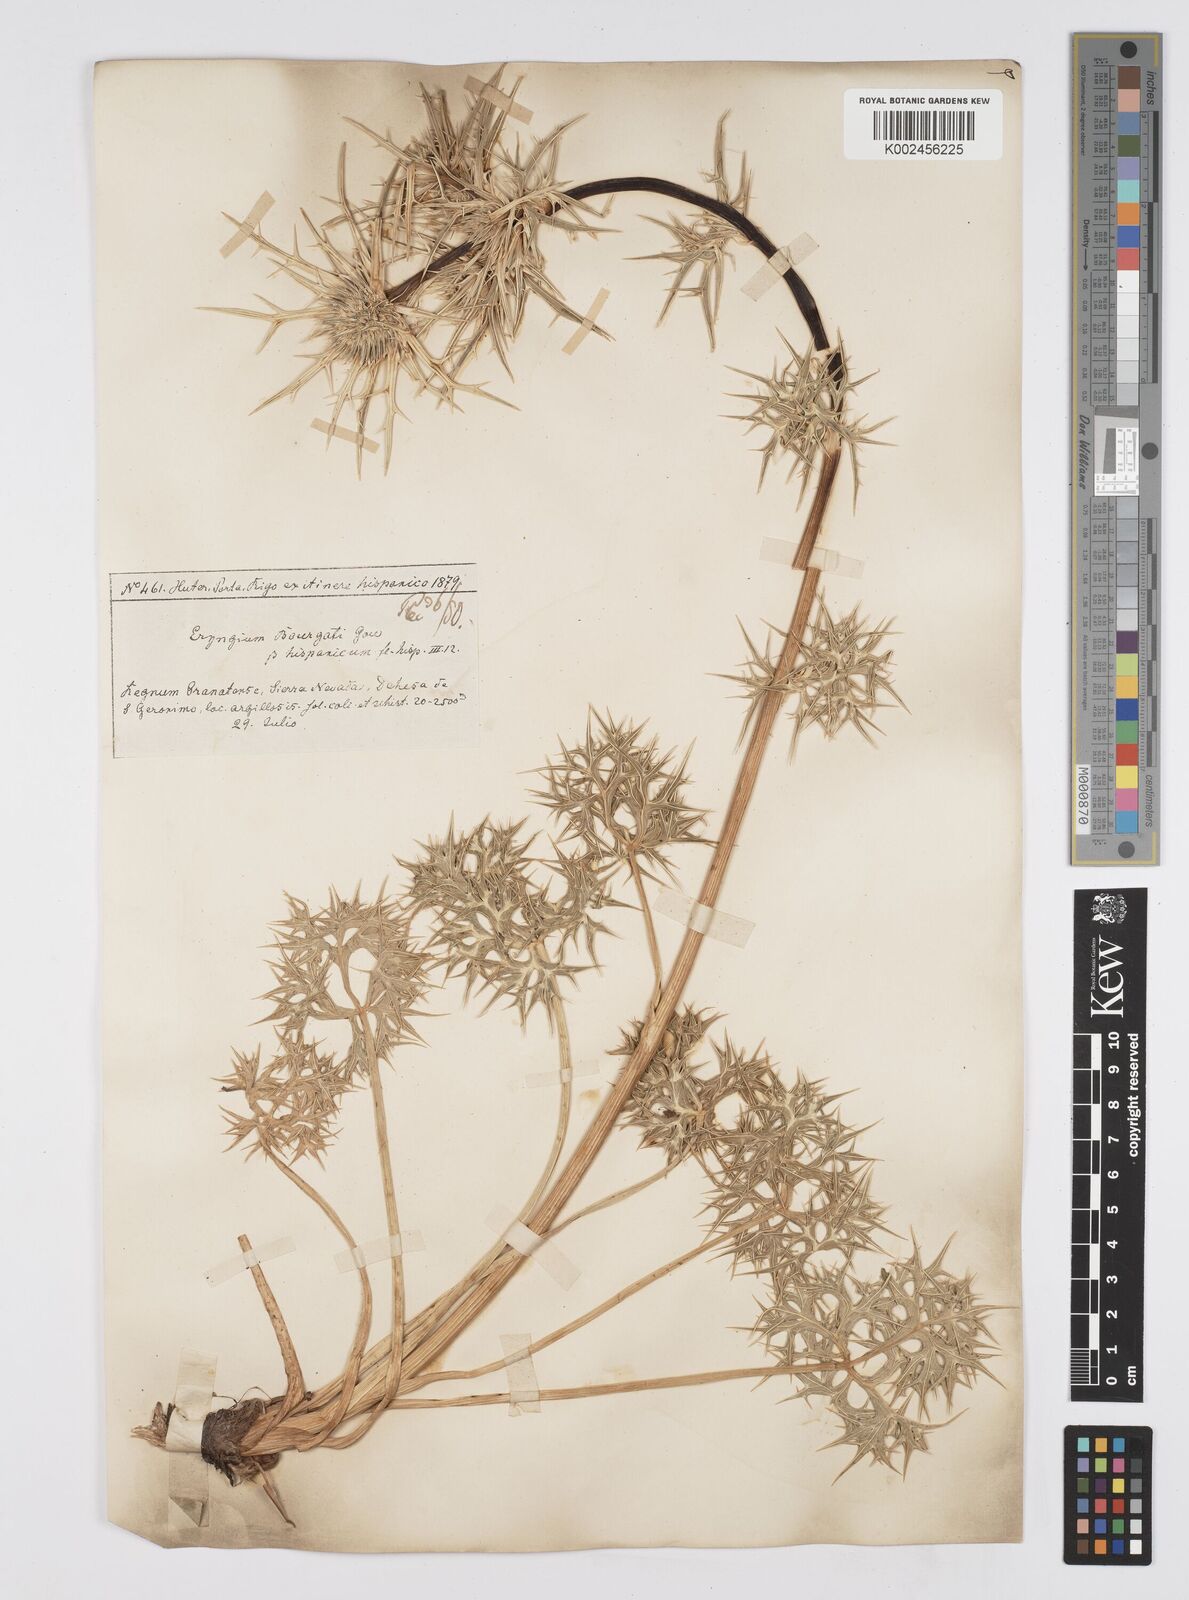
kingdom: Plantae
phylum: Tracheophyta
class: Magnoliopsida
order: Apiales
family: Apiaceae
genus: Eryngium
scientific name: Eryngium bourgatii
